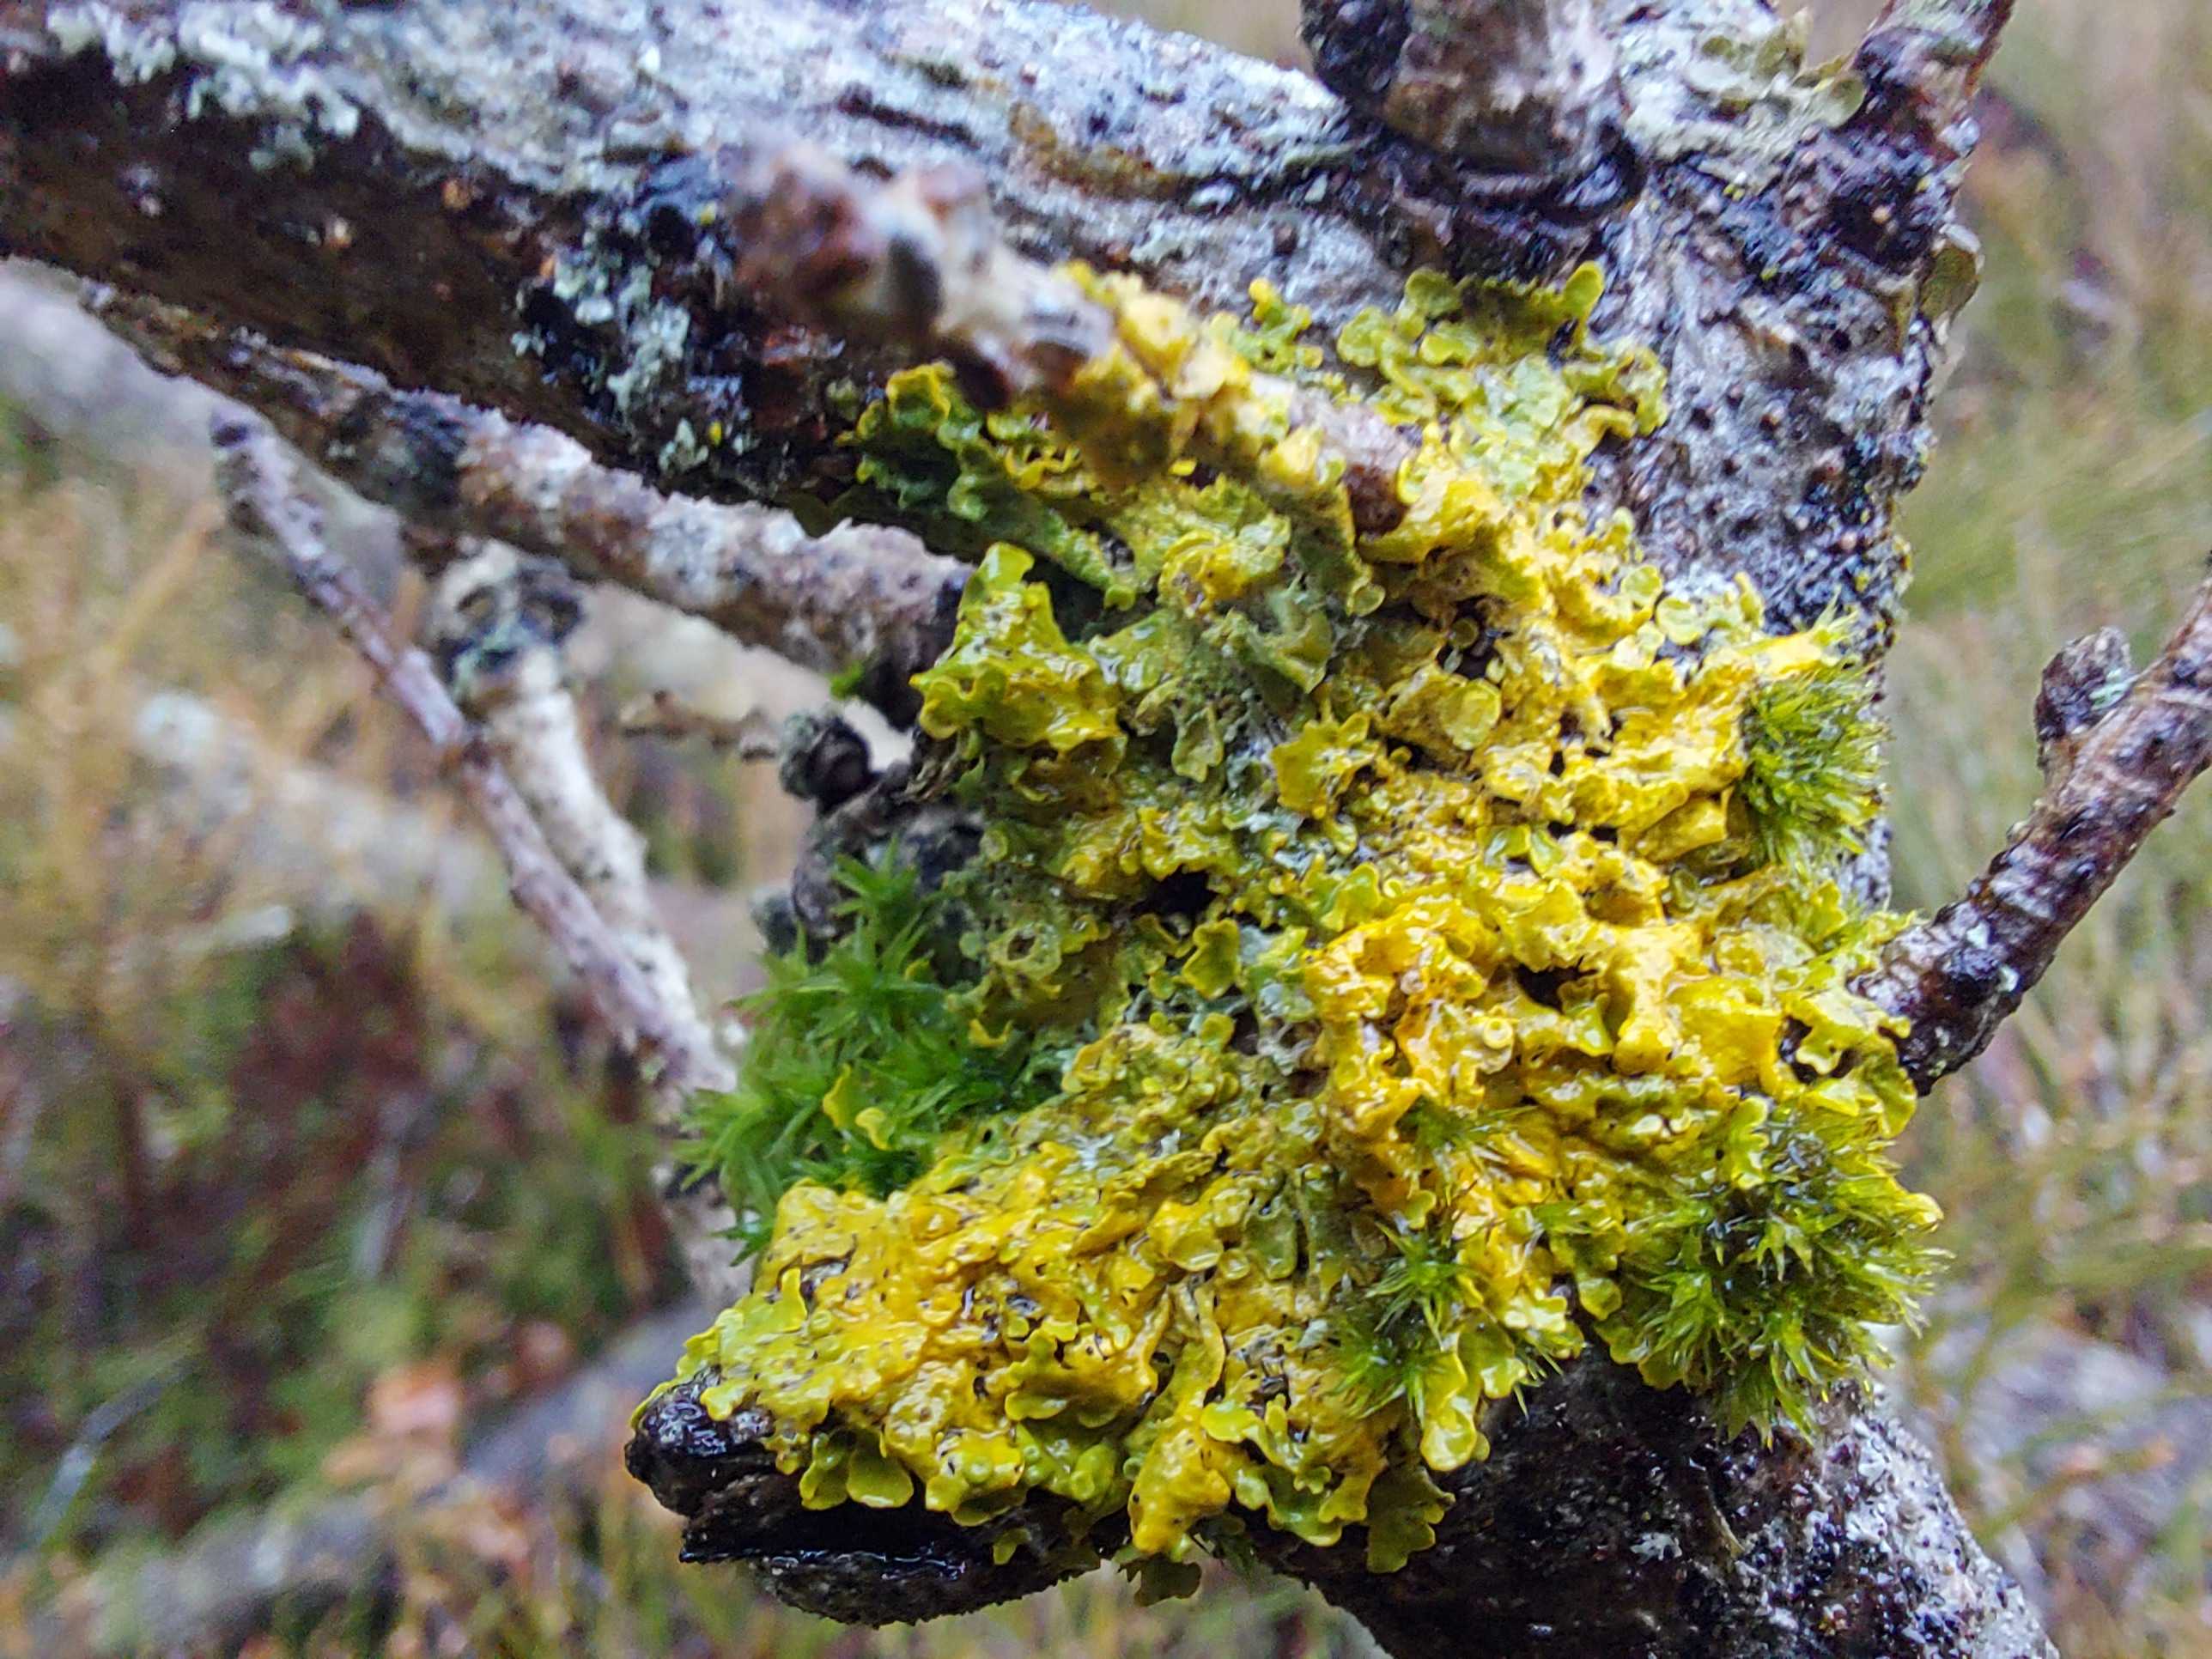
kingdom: Fungi
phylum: Ascomycota
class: Lecanoromycetes
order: Teloschistales
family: Teloschistaceae
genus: Xanthoria
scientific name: Xanthoria parietina
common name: almindelig væggelav
